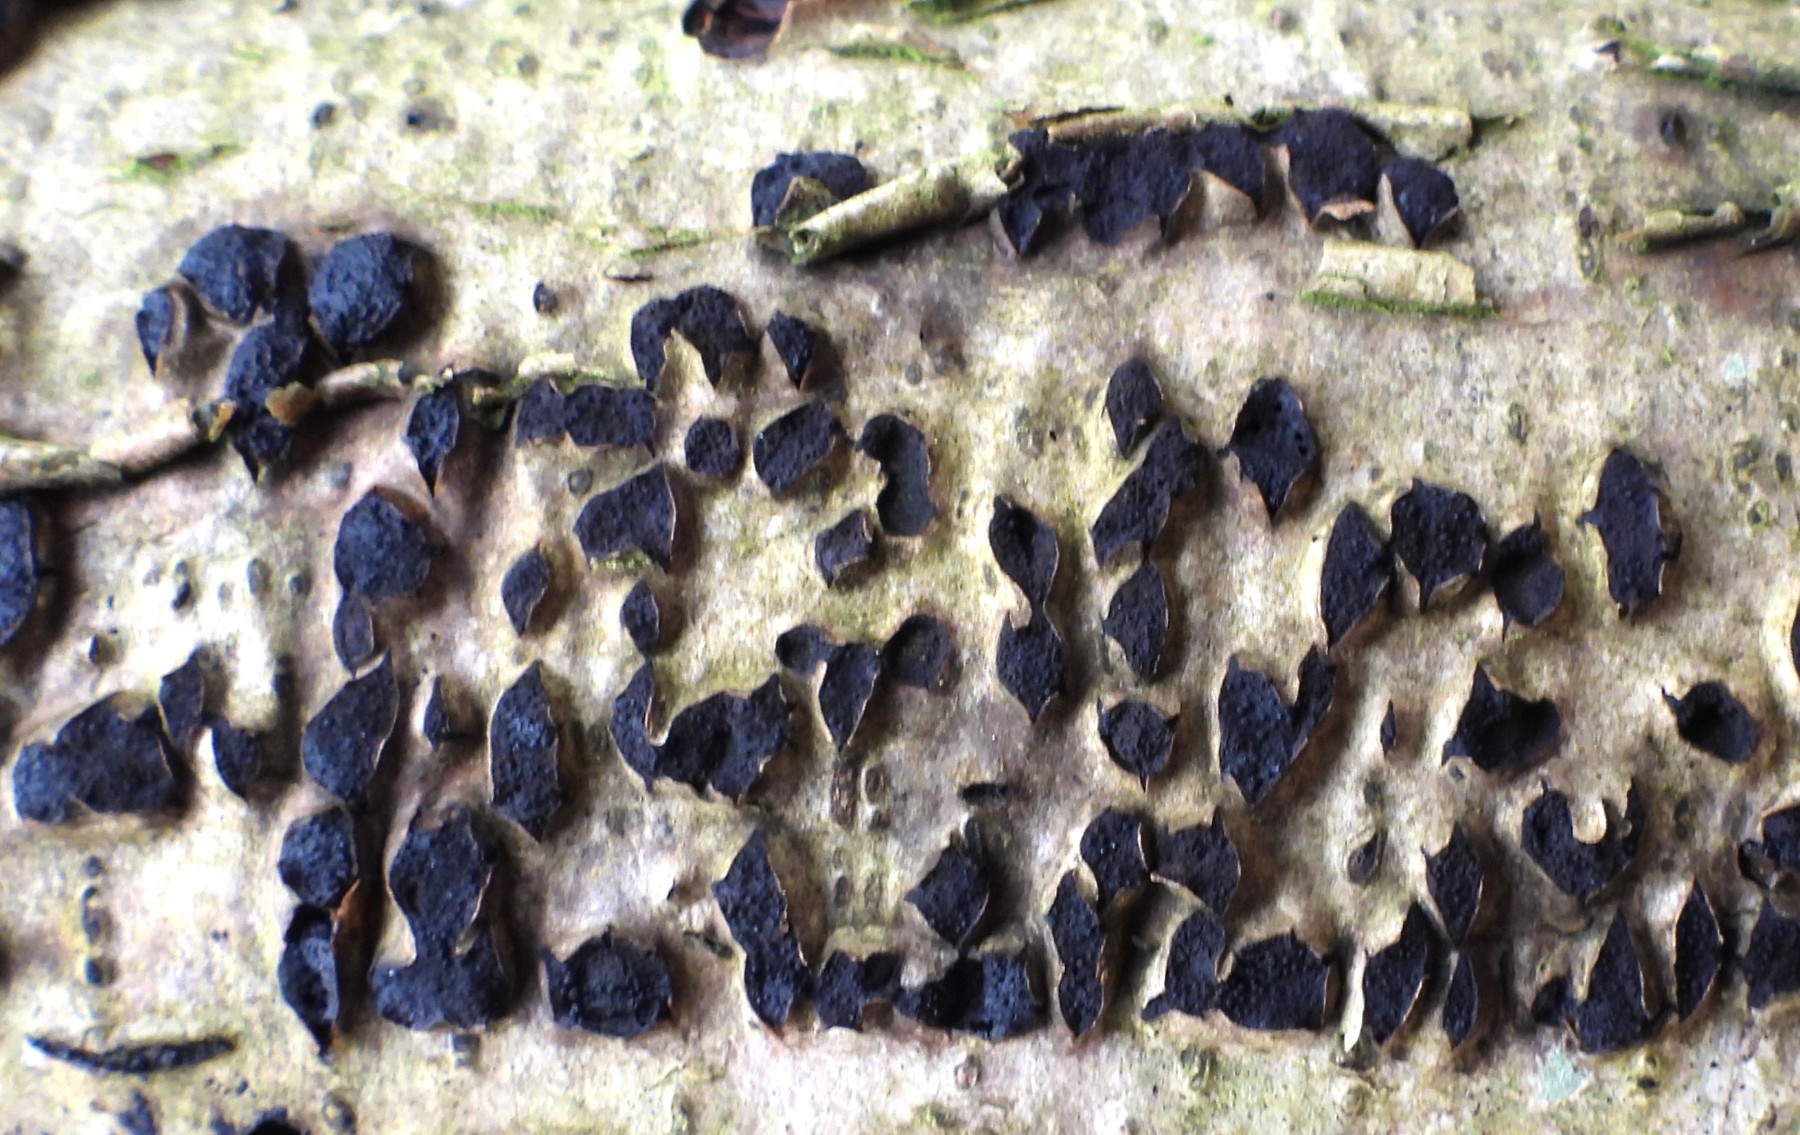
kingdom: Fungi
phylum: Ascomycota
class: Sordariomycetes
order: Xylariales
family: Diatrypaceae
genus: Diatrypella
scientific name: Diatrypella favacea
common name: klemt kulskorpe
